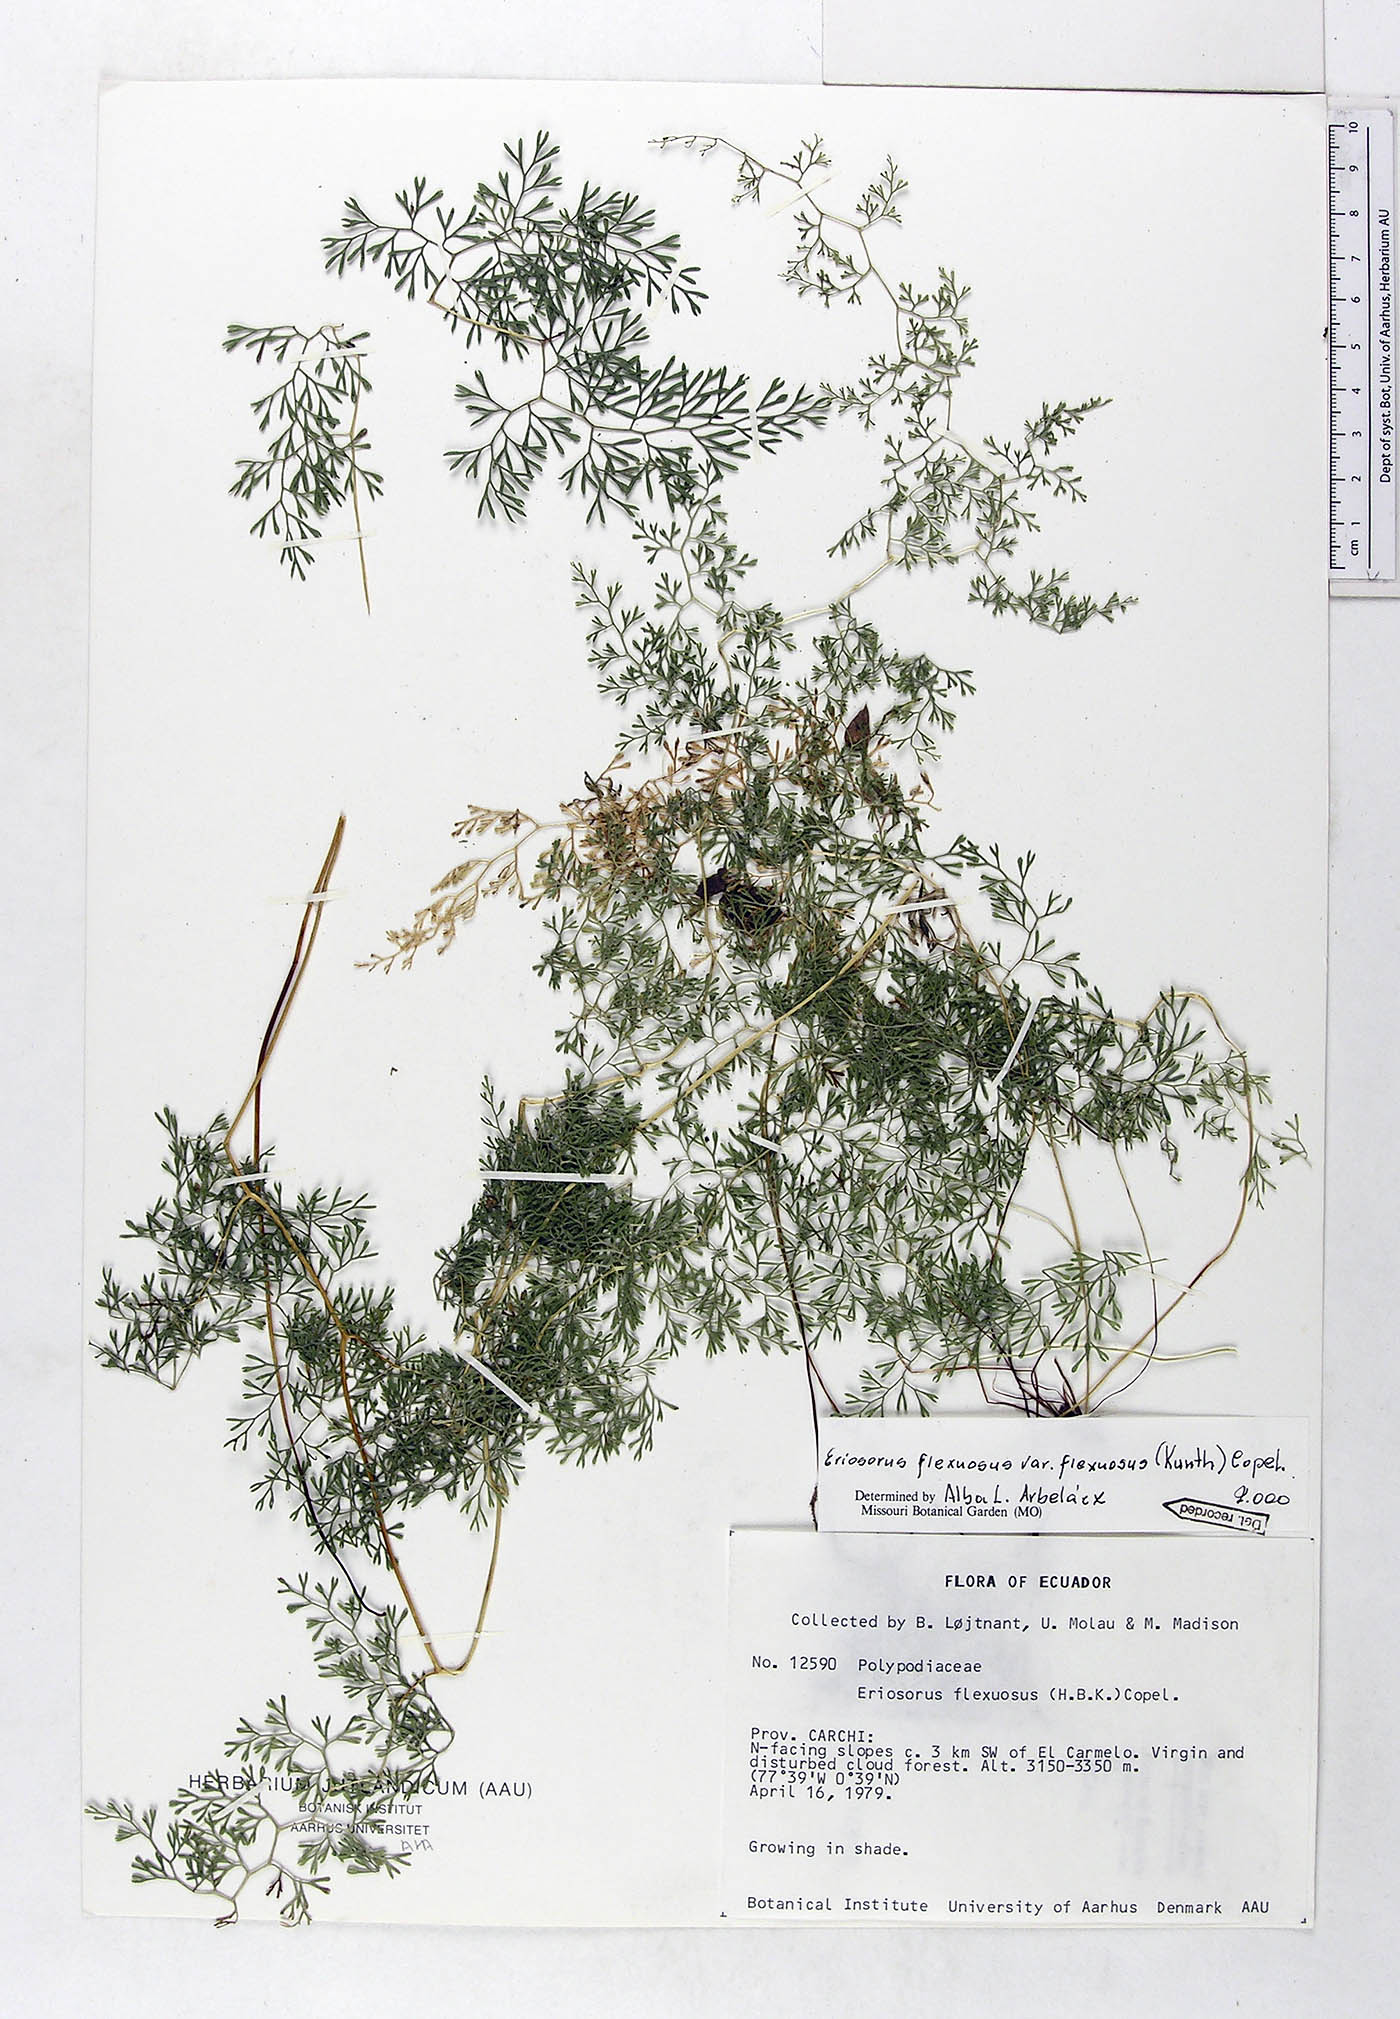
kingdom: Plantae
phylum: Tracheophyta
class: Polypodiopsida
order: Polypodiales
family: Pteridaceae
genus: Jamesonia
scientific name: Jamesonia flexuosa
